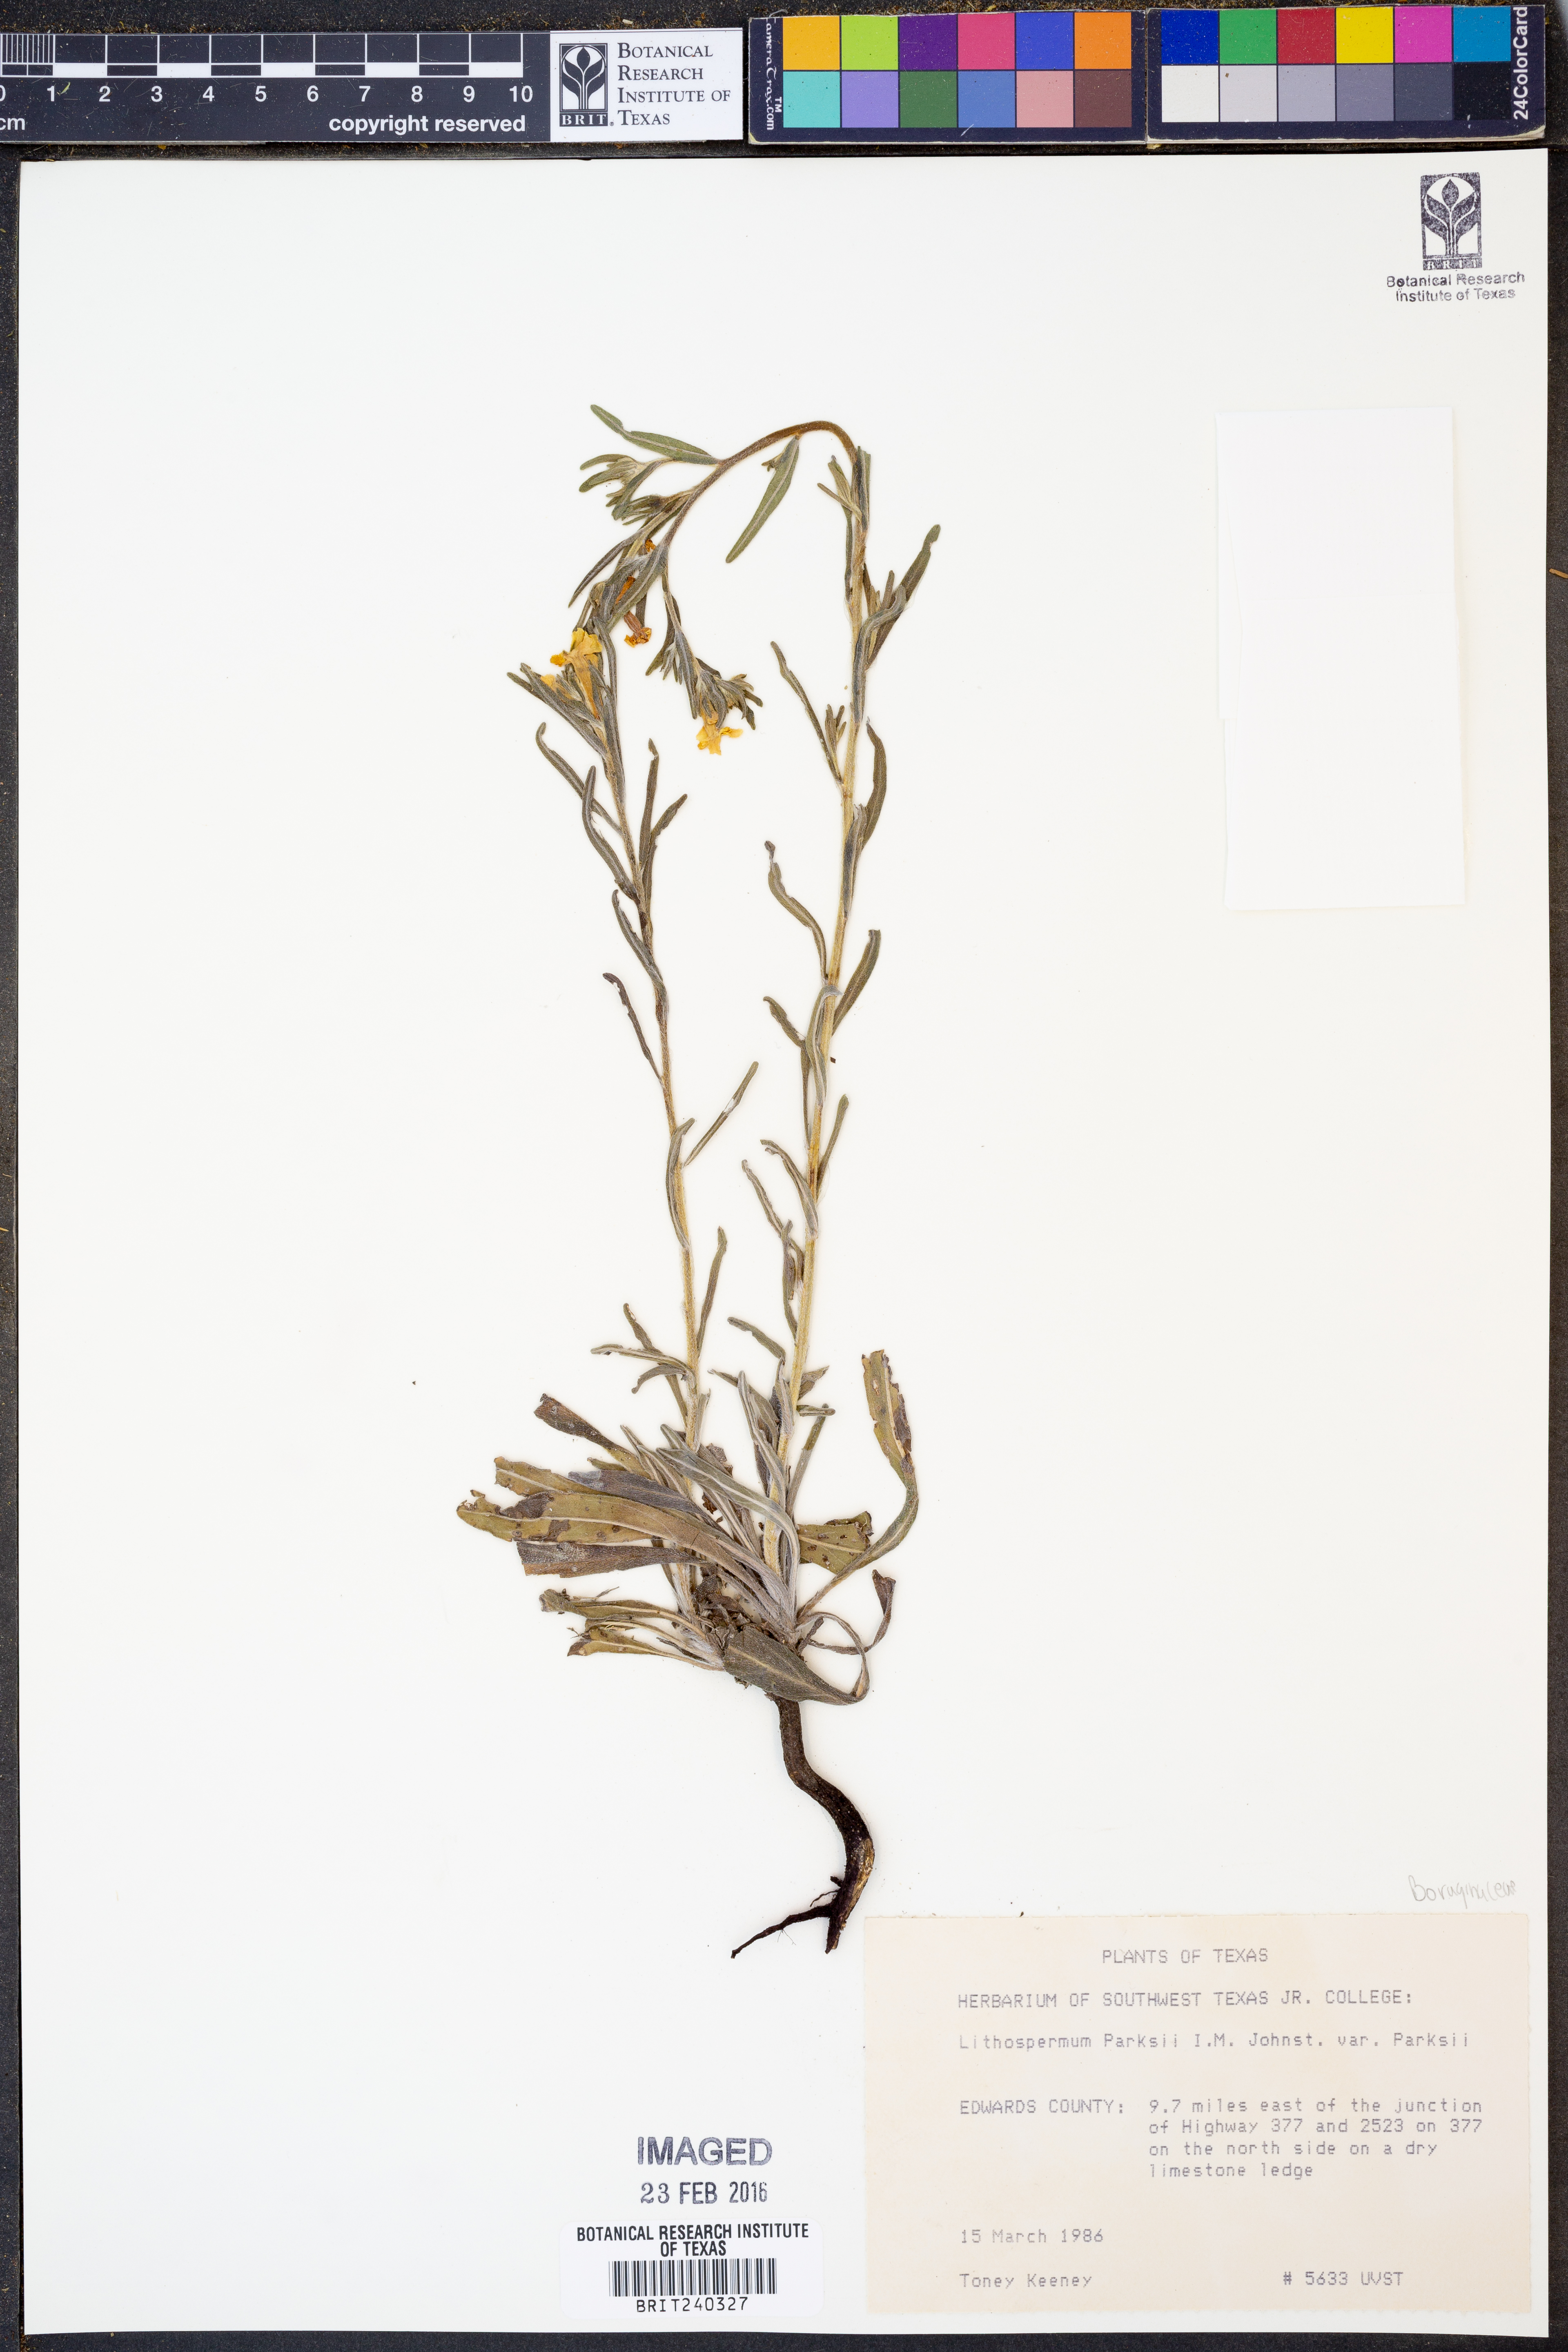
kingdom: Plantae
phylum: Tracheophyta
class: Magnoliopsida
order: Boraginales
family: Boraginaceae
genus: Lithospermum
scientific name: Lithospermum parksii
